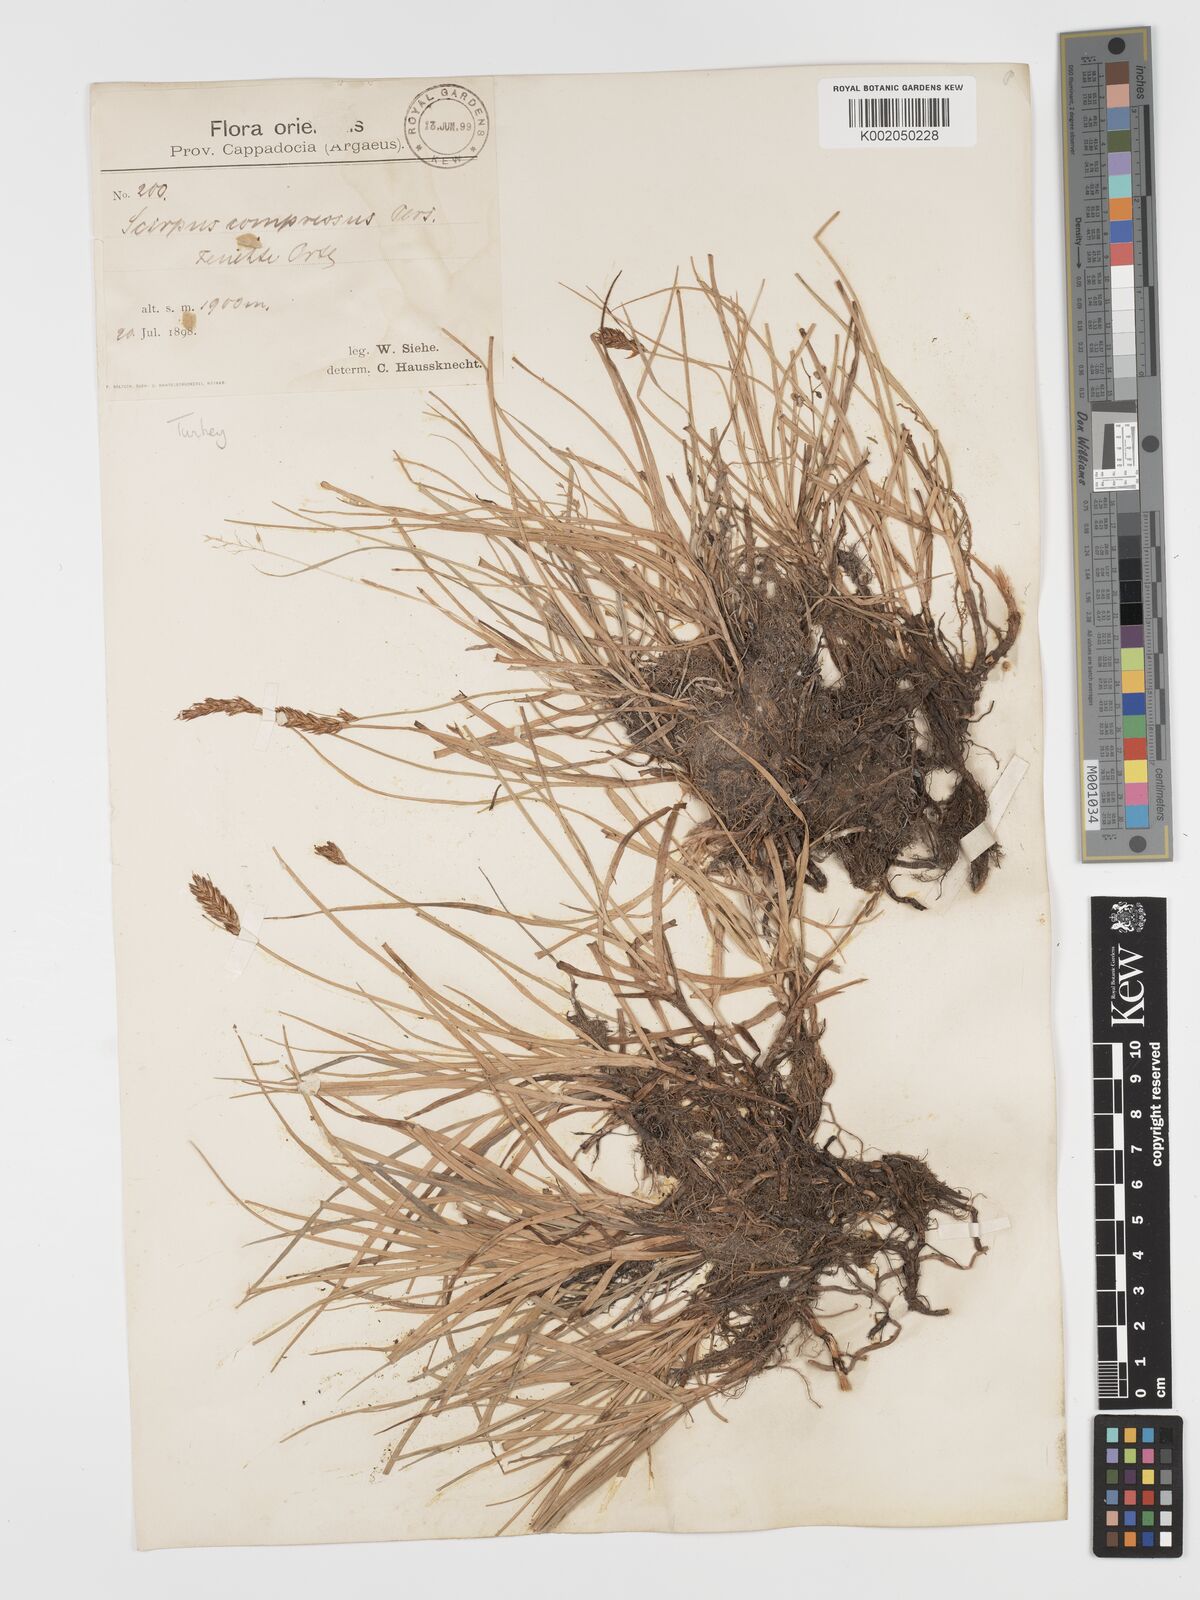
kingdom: Plantae
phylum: Tracheophyta
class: Liliopsida
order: Poales
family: Cyperaceae
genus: Blysmus
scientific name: Blysmus compressus
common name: Flat-sedge
